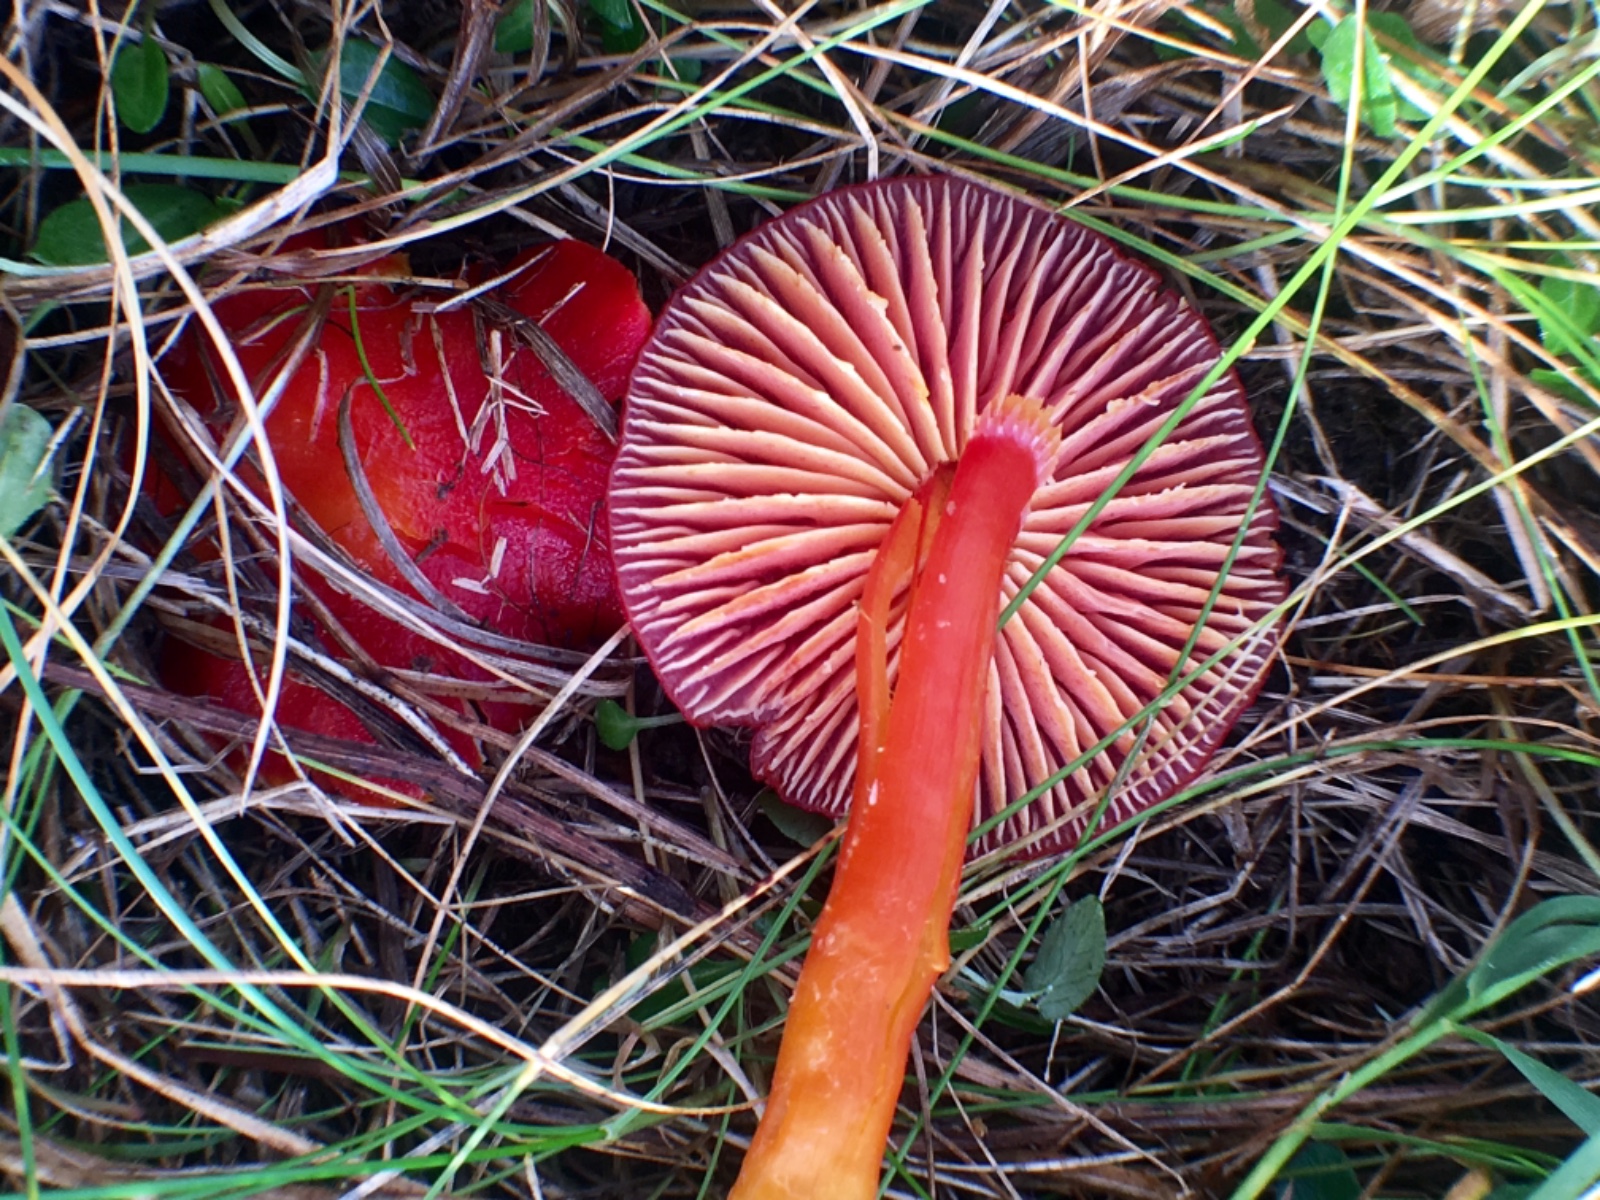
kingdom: Fungi
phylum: Basidiomycota
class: Agaricomycetes
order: Agaricales
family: Hygrophoraceae
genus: Hygrocybe
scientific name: Hygrocybe coccinea
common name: cinnober-vokshat
